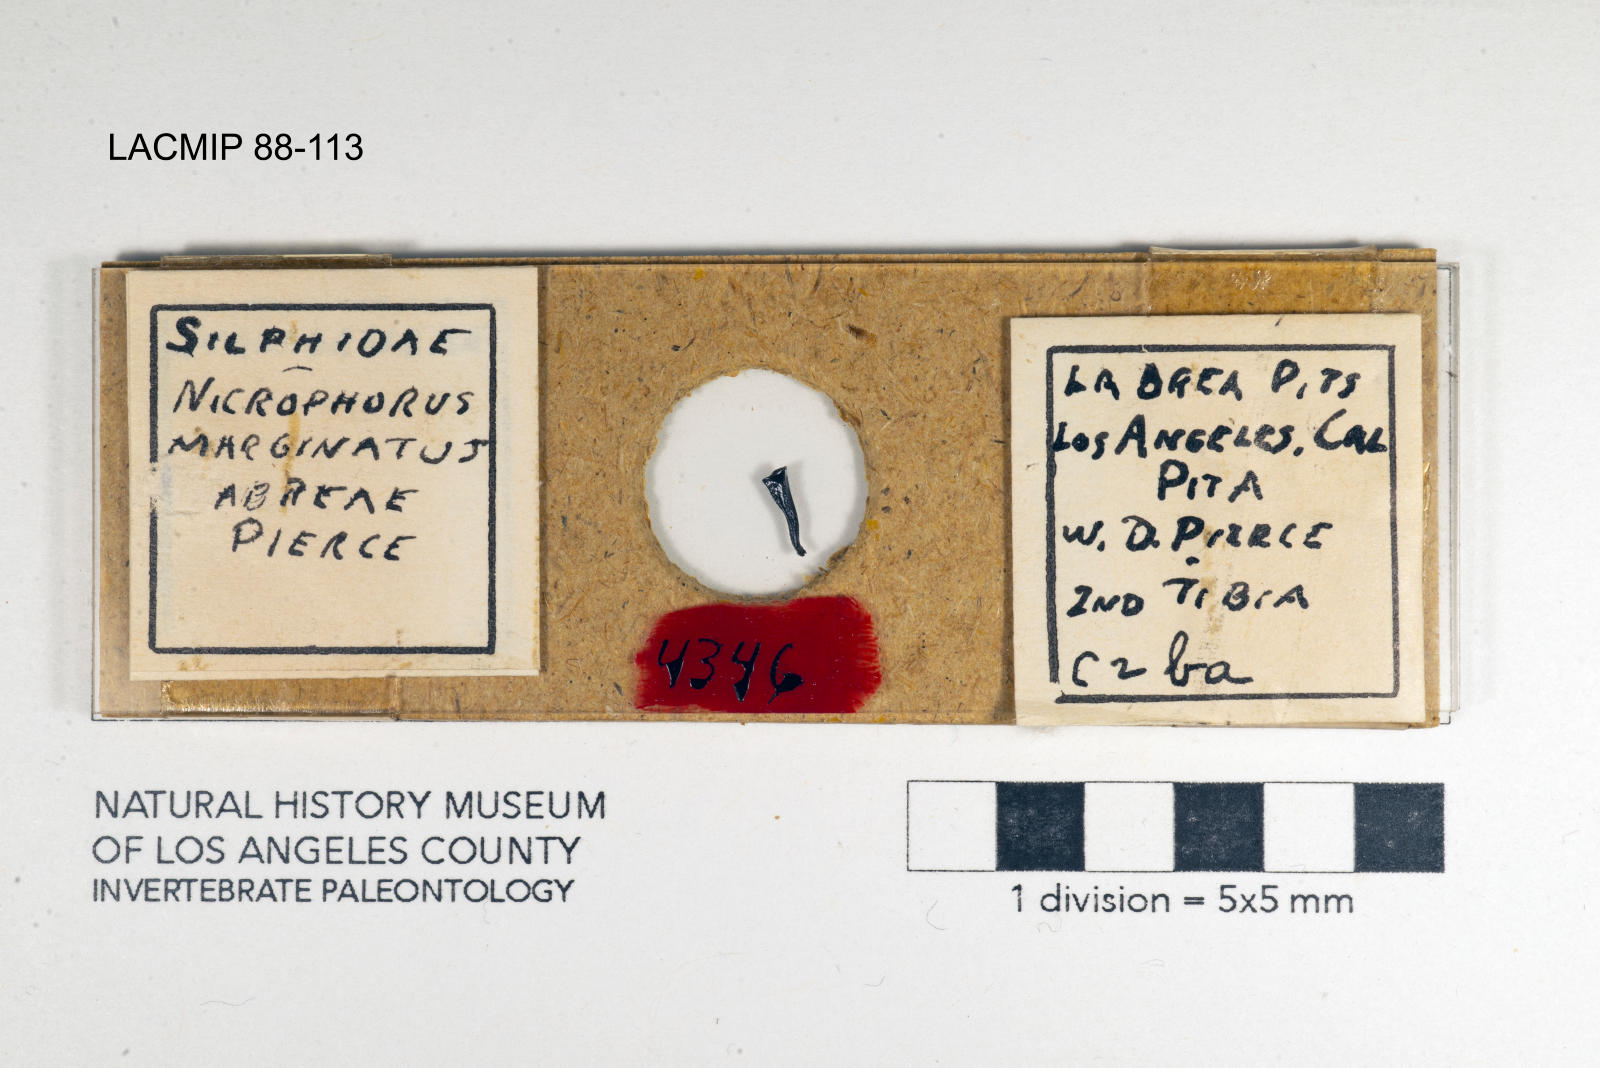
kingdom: Animalia
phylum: Arthropoda
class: Insecta
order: Coleoptera
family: Staphylinidae
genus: Nicrophorus
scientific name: Nicrophorus marginatus
